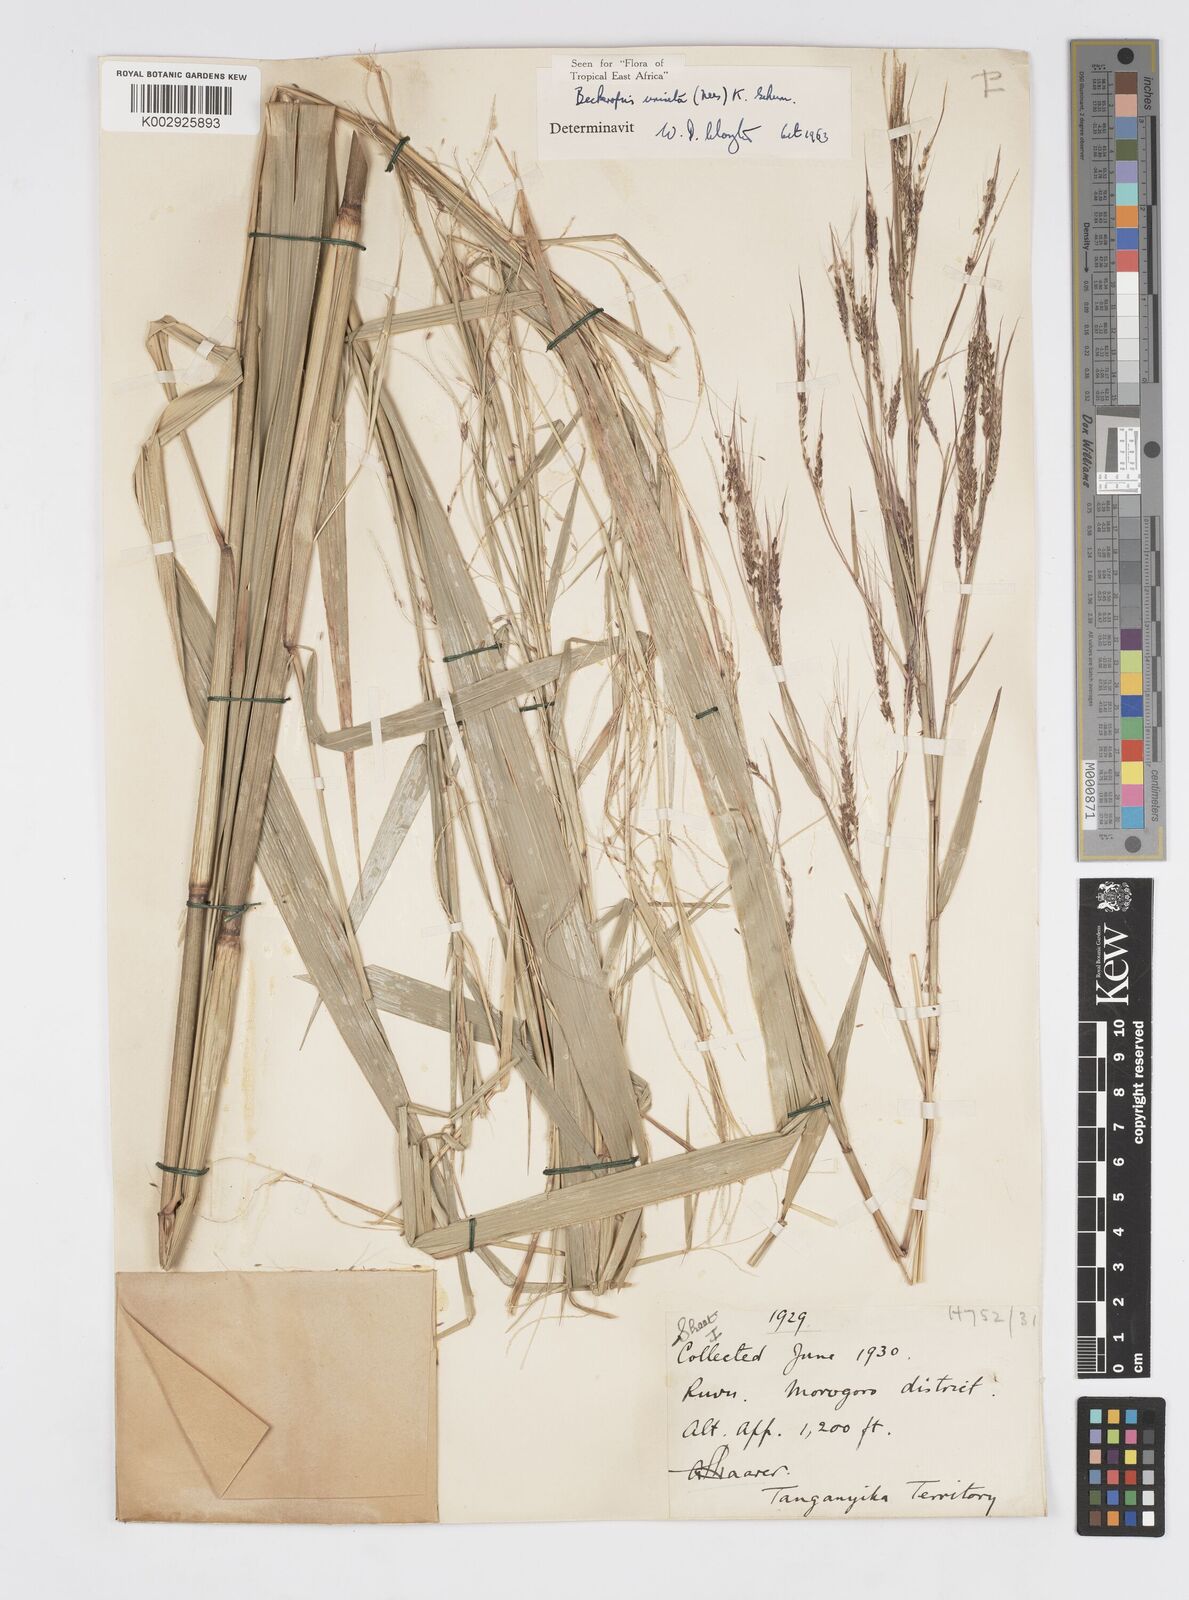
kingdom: Plantae
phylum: Tracheophyta
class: Liliopsida
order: Poales
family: Poaceae
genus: Cenchrus
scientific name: Cenchrus unisetus
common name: Natal grass
